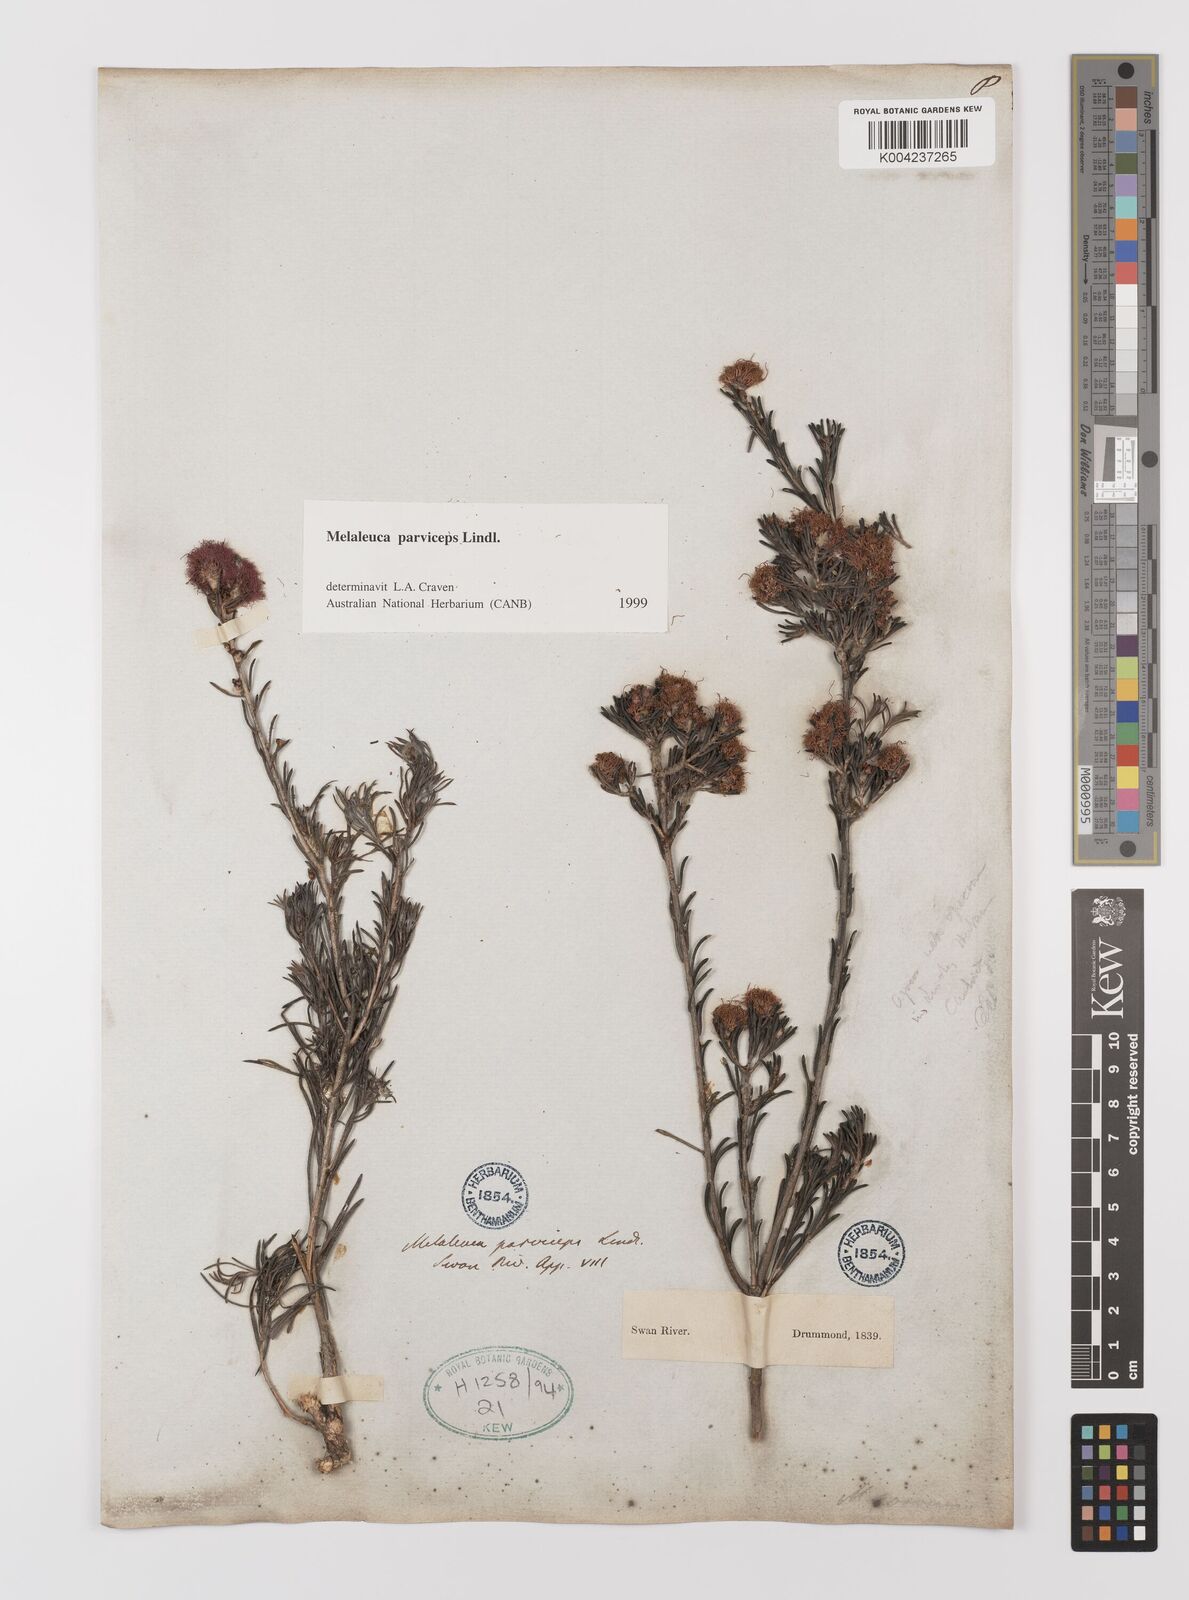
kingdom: Plantae
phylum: Tracheophyta
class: Magnoliopsida
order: Myrtales
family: Myrtaceae
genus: Melaleuca
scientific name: Melaleuca parviceps
